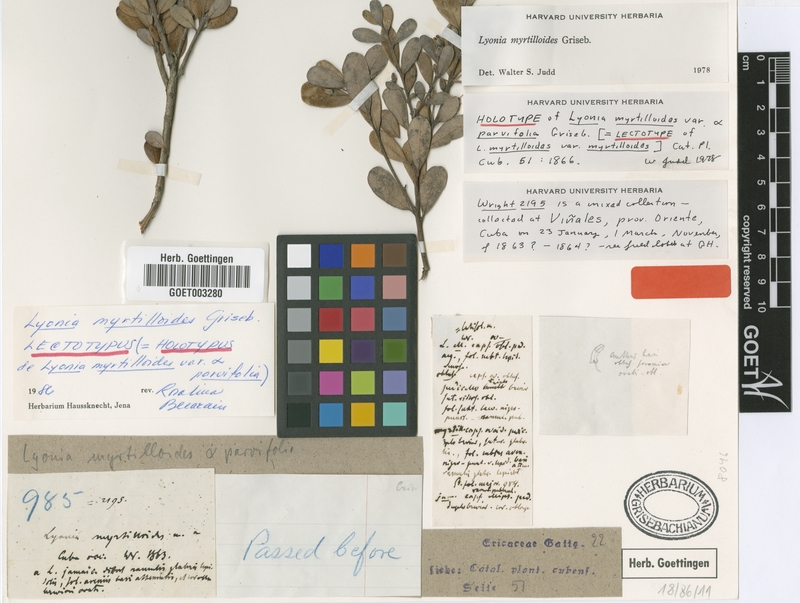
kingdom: Plantae
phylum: Tracheophyta
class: Magnoliopsida
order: Ericales
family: Ericaceae
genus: Lyonia
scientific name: Lyonia myrtilloides
